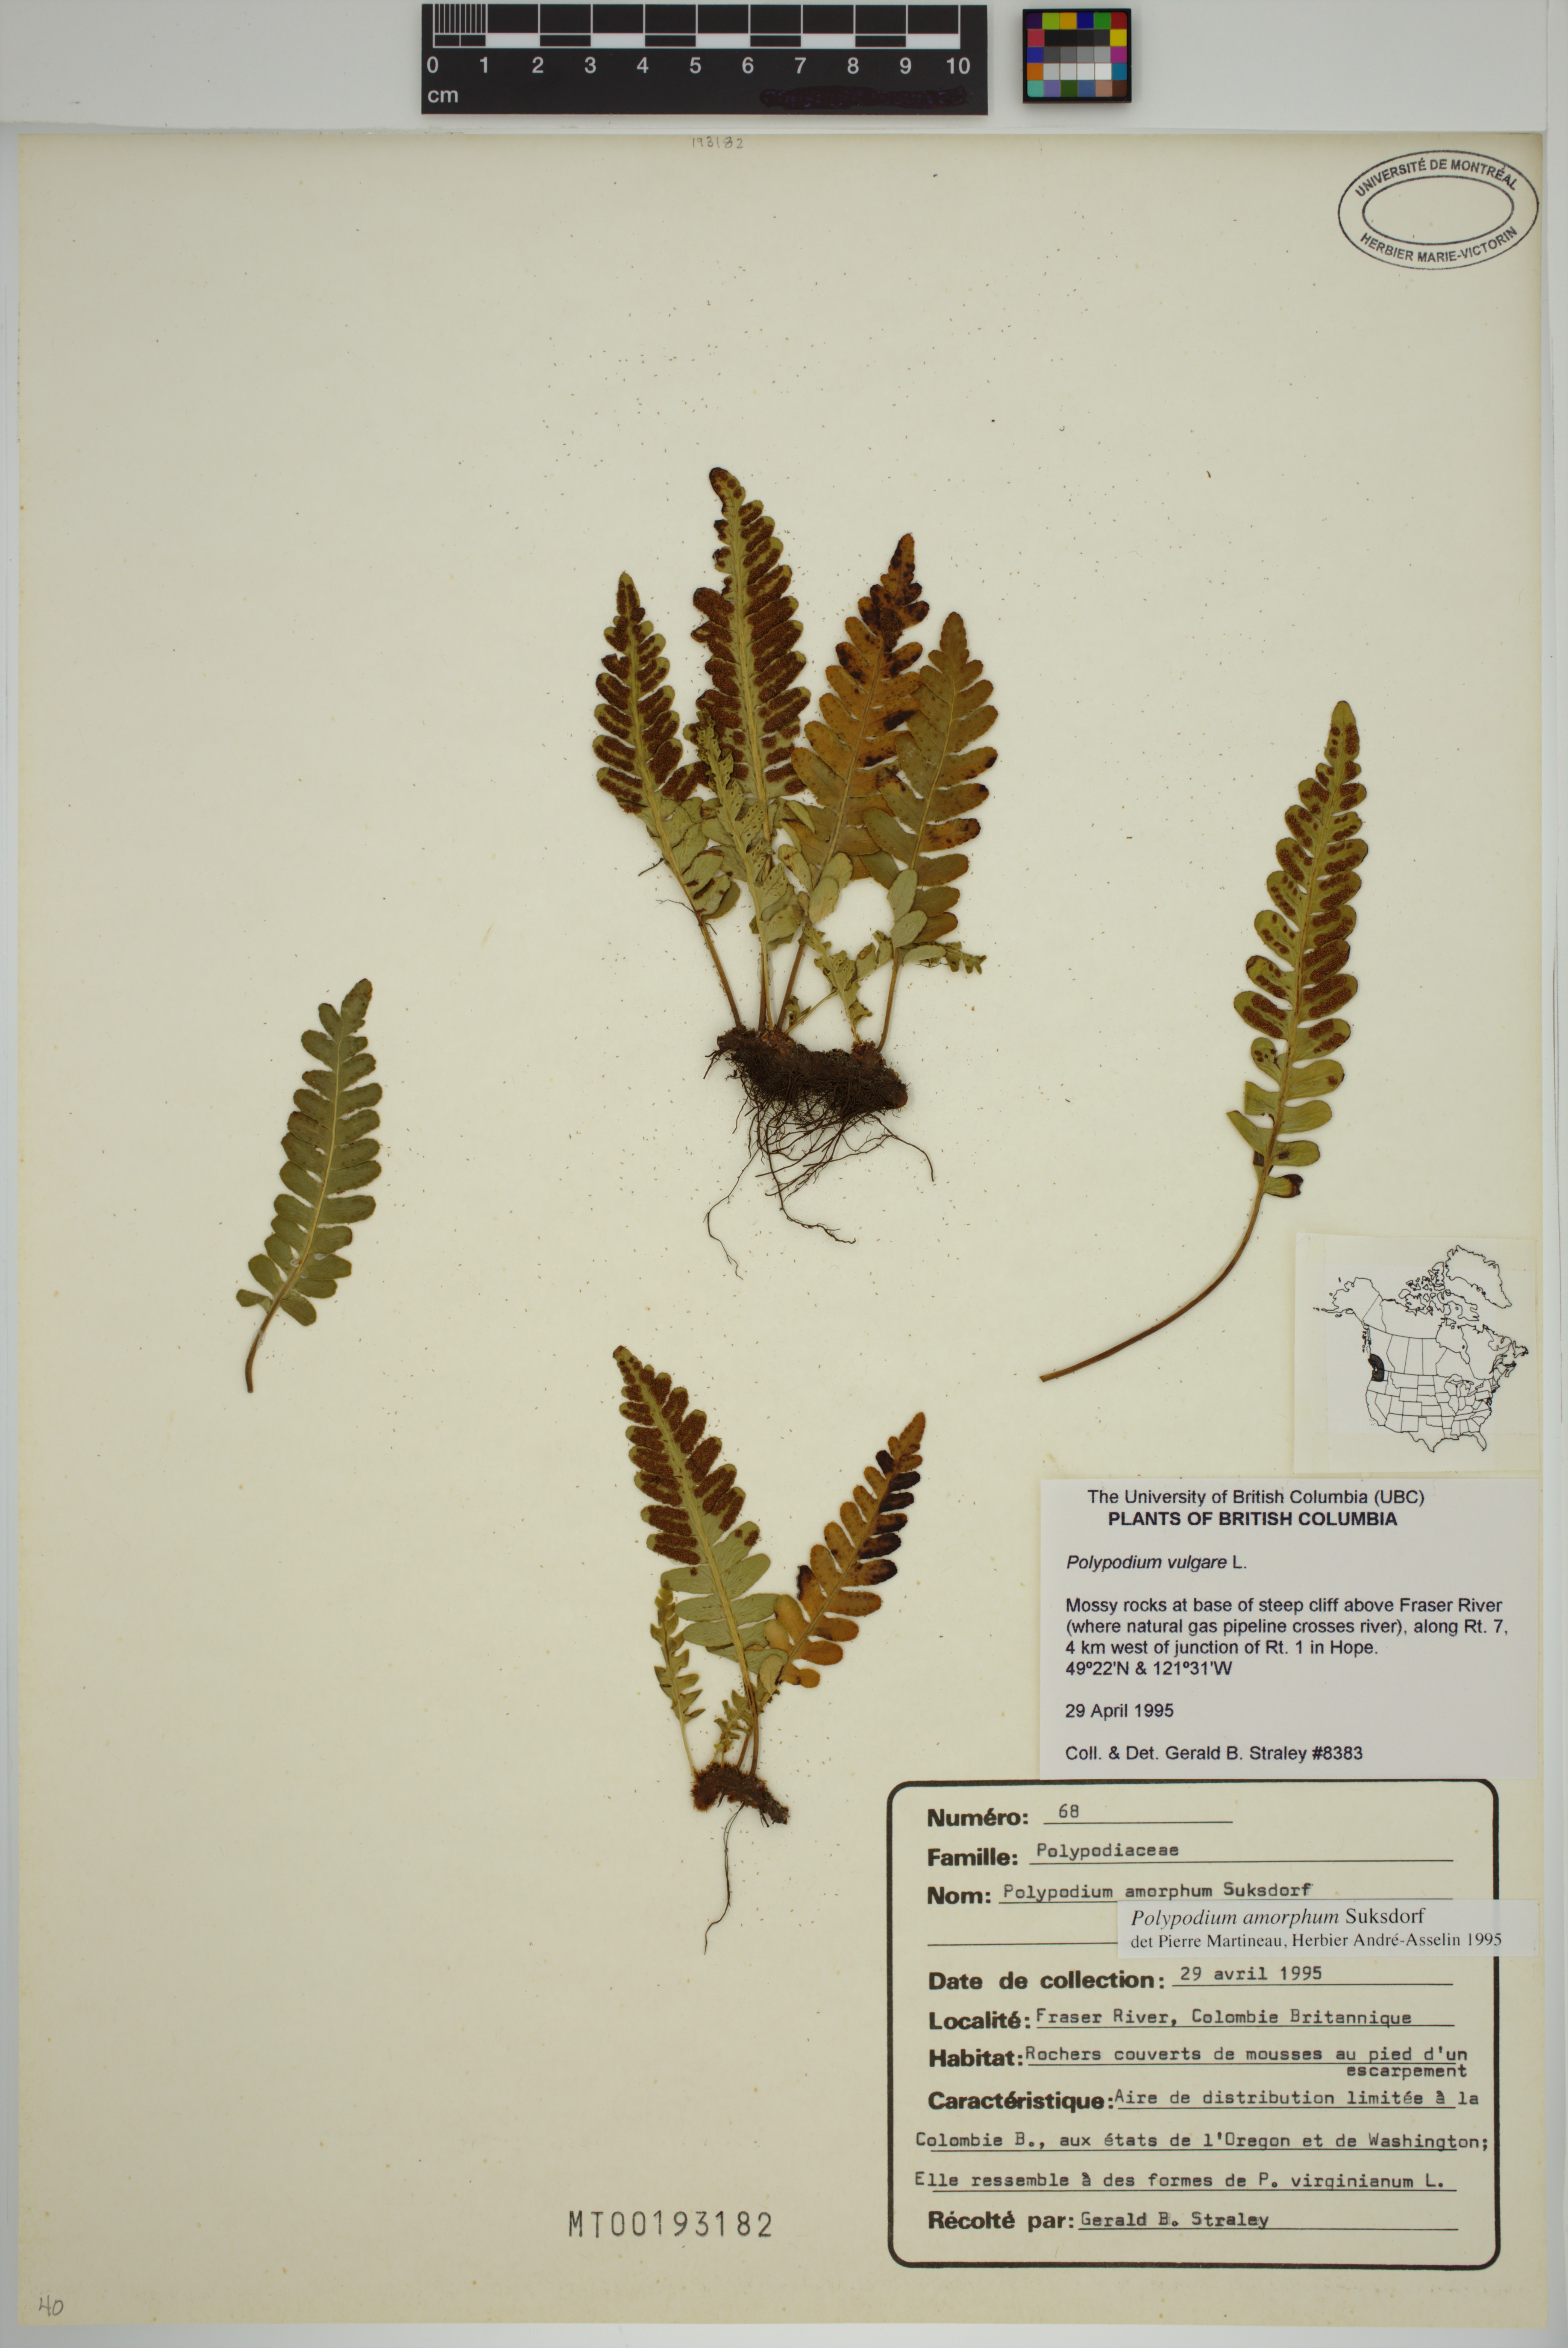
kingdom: Plantae
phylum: Tracheophyta
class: Polypodiopsida
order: Polypodiales
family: Polypodiaceae
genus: Polypodium
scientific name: Polypodium amorphum
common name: Pacific polypody
